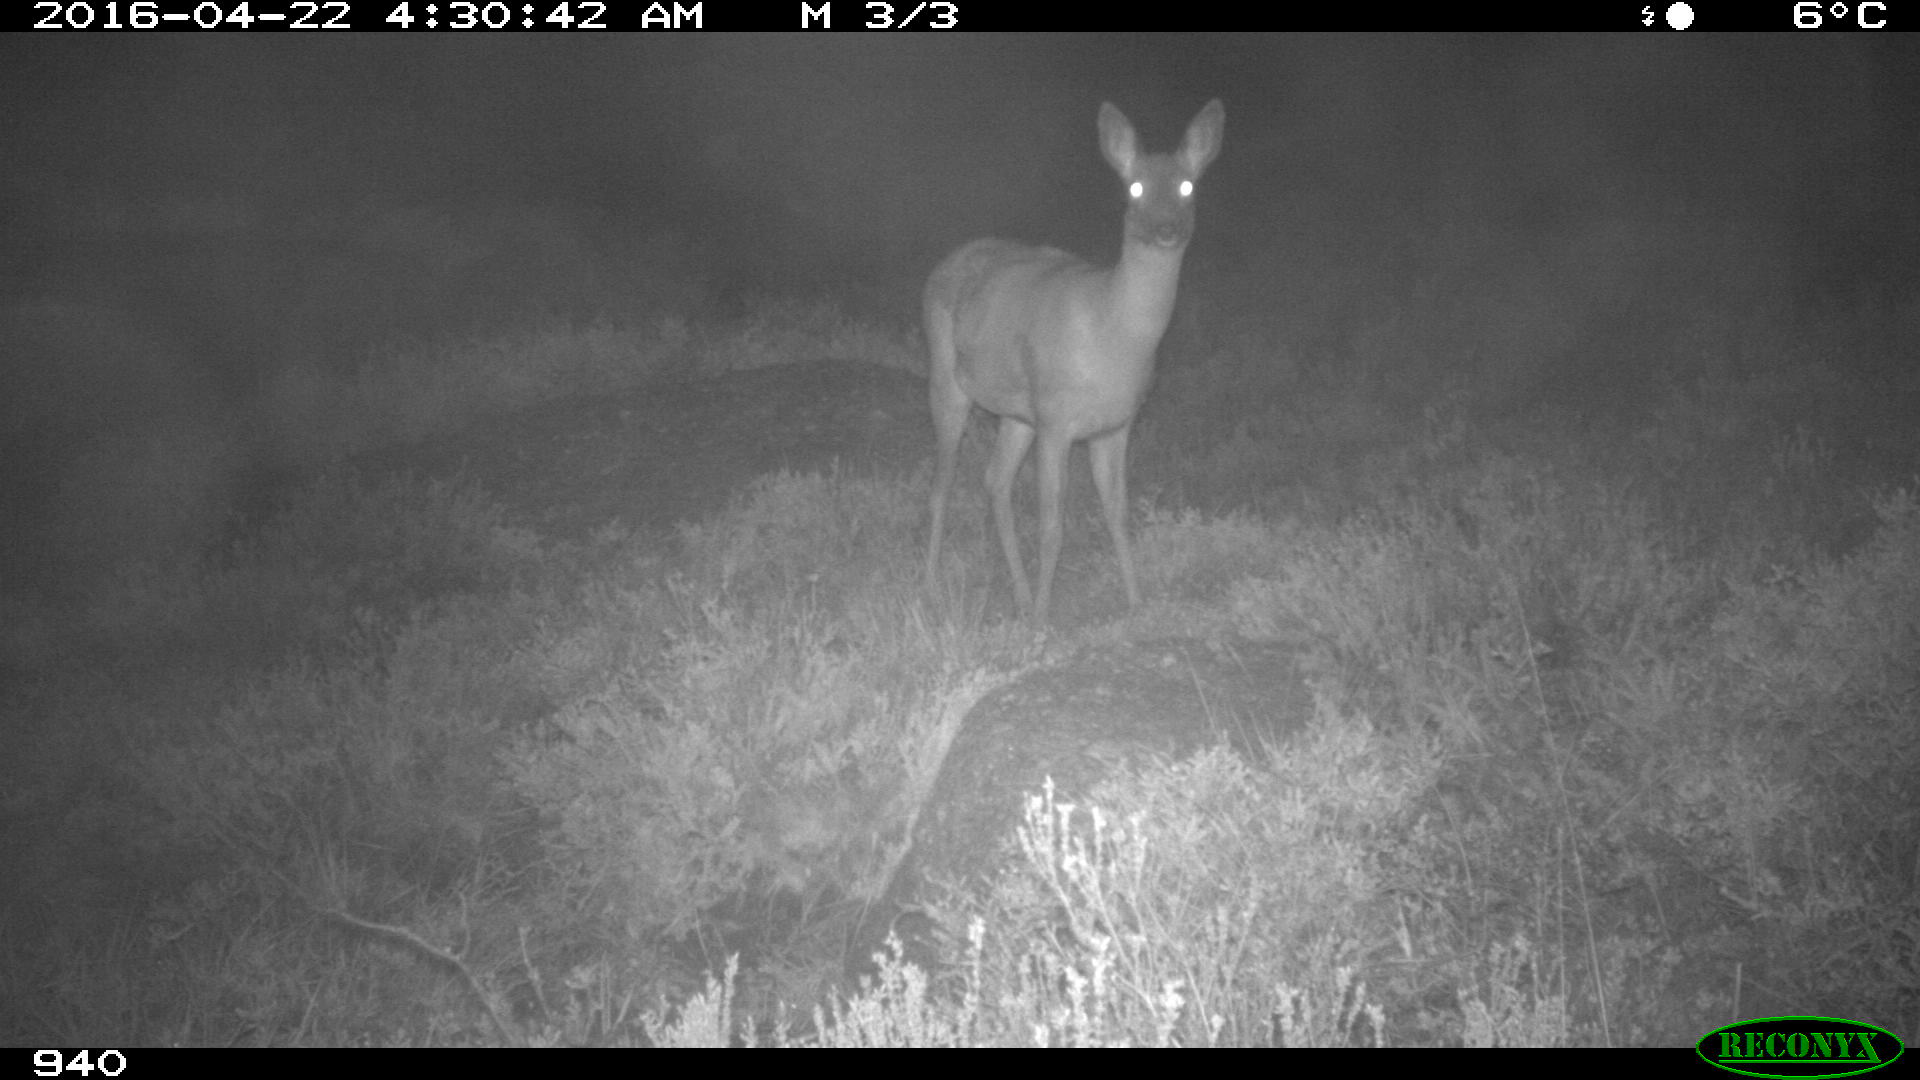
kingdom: Animalia
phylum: Chordata
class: Mammalia
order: Artiodactyla
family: Cervidae
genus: Capreolus
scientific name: Capreolus capreolus
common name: Western roe deer
